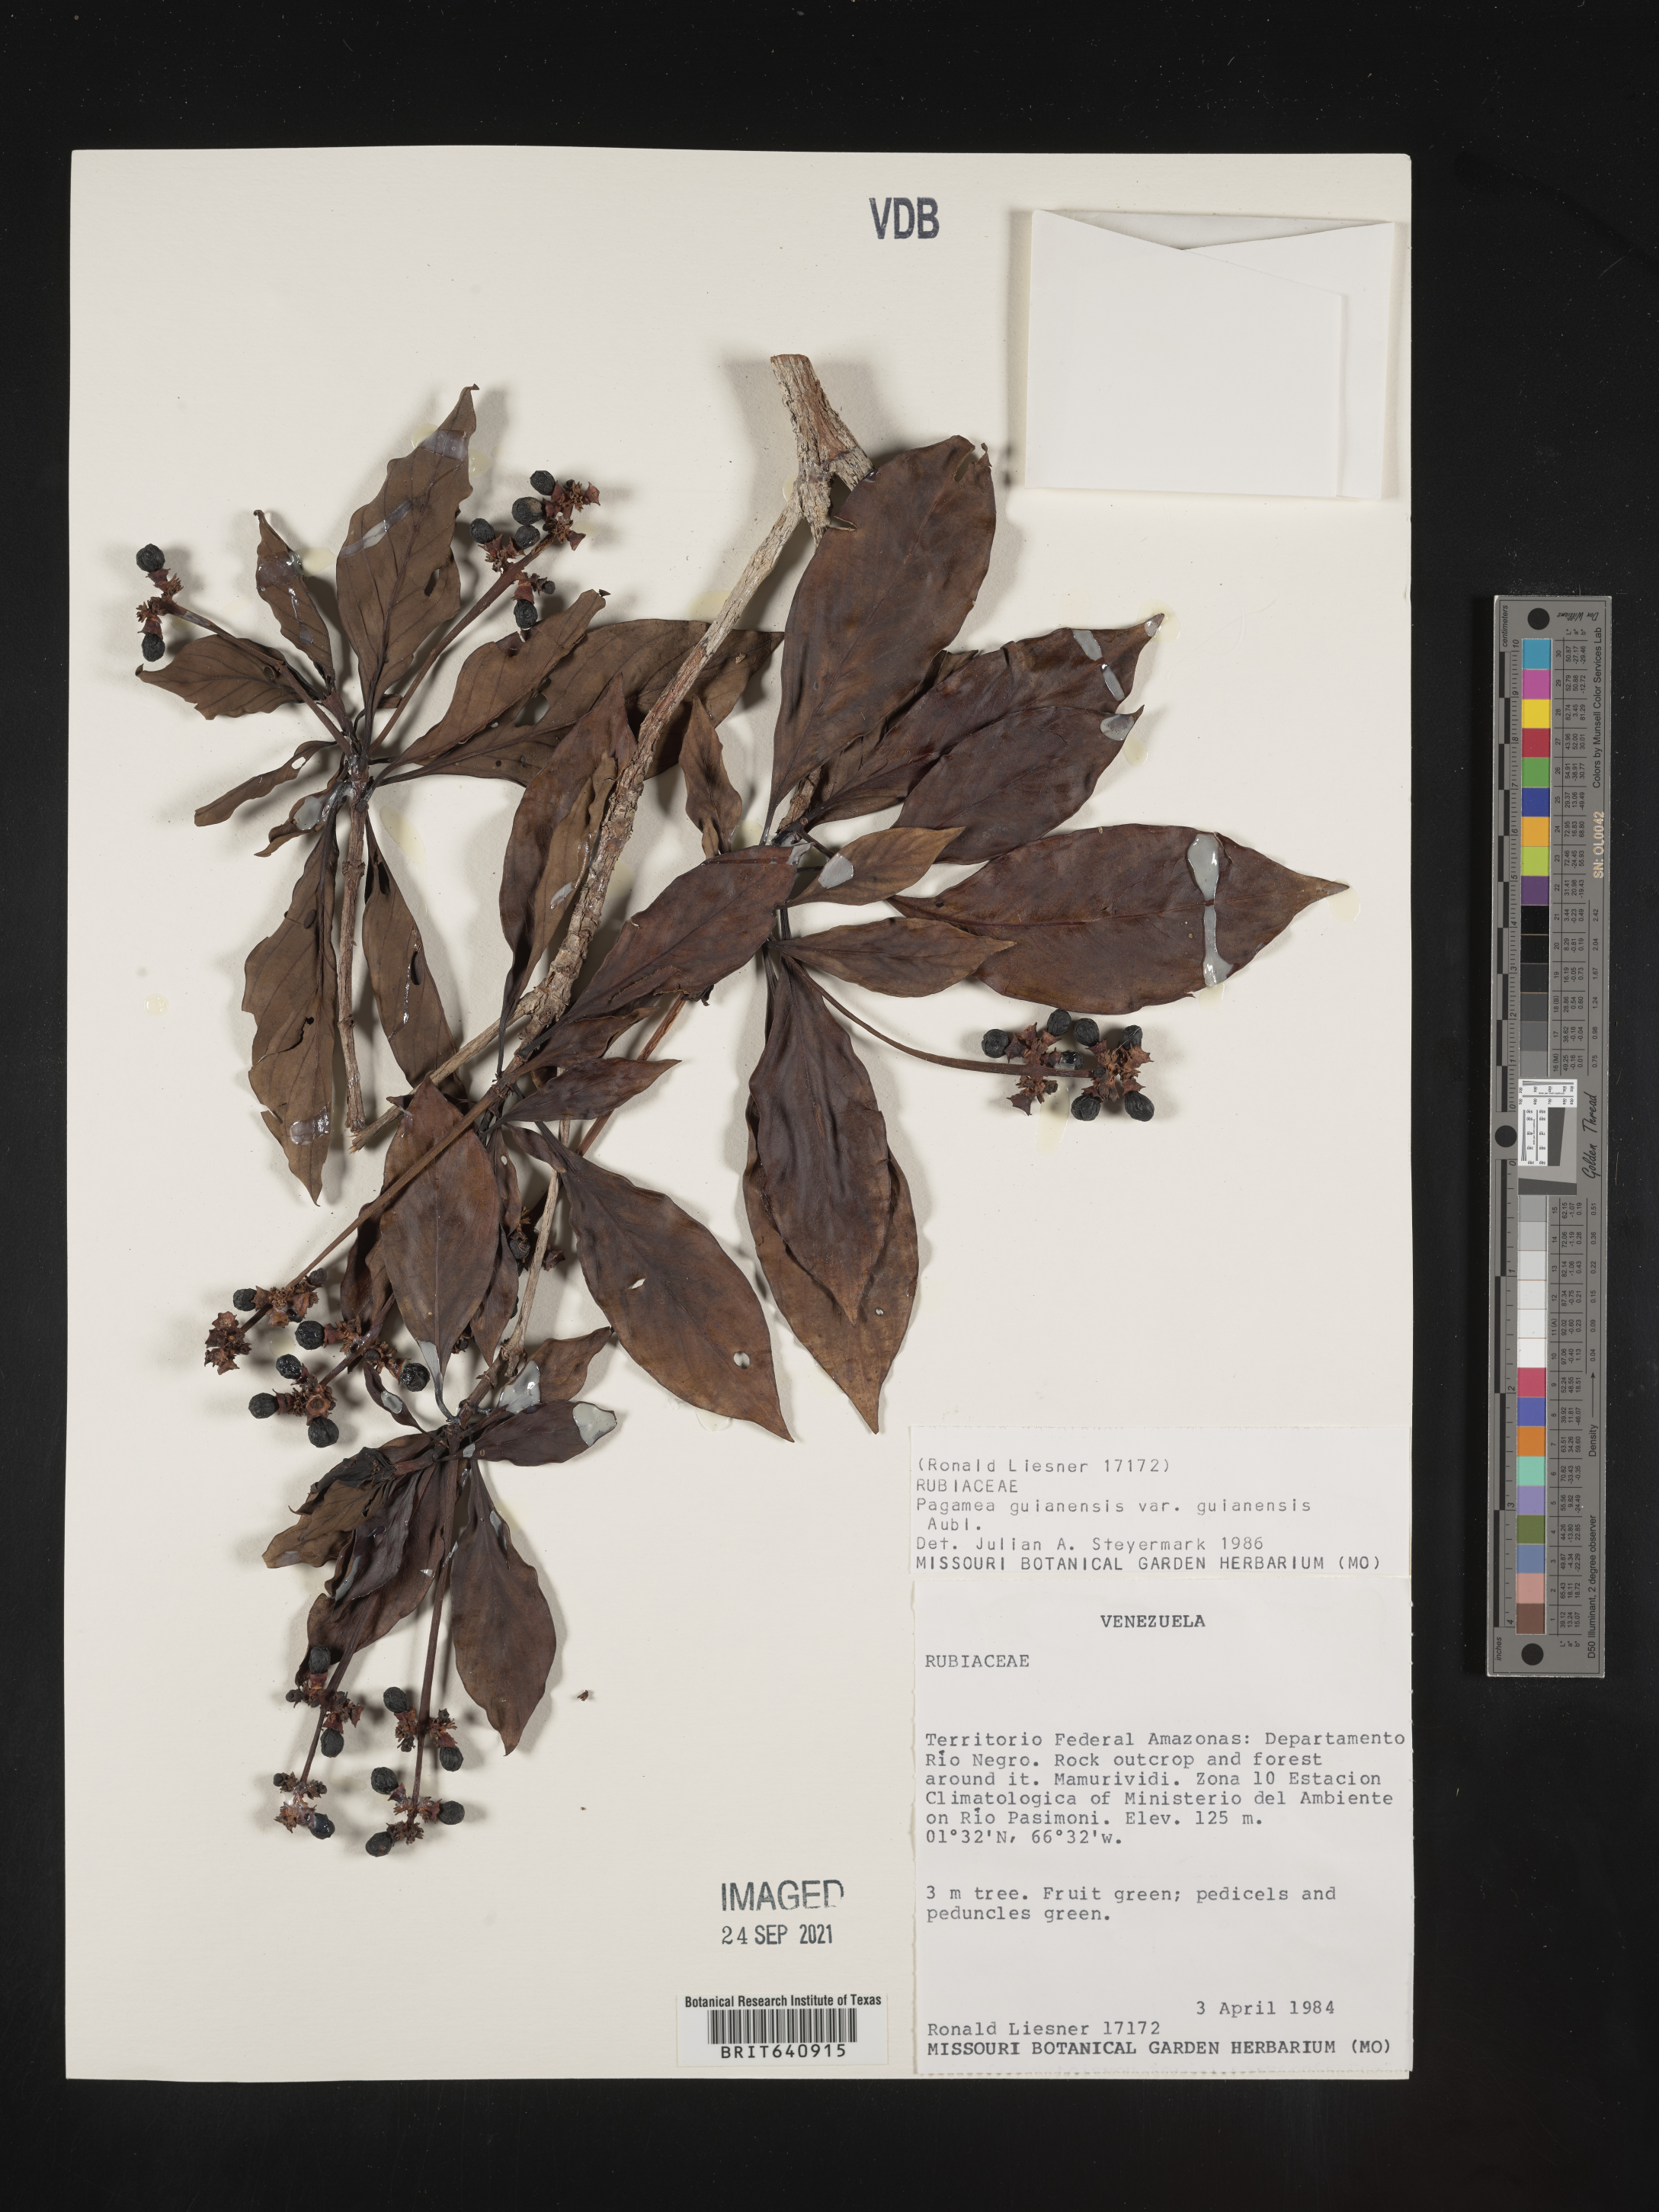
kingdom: Plantae
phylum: Tracheophyta
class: Magnoliopsida
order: Gentianales
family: Rubiaceae
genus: Pagamea
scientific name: Pagamea
